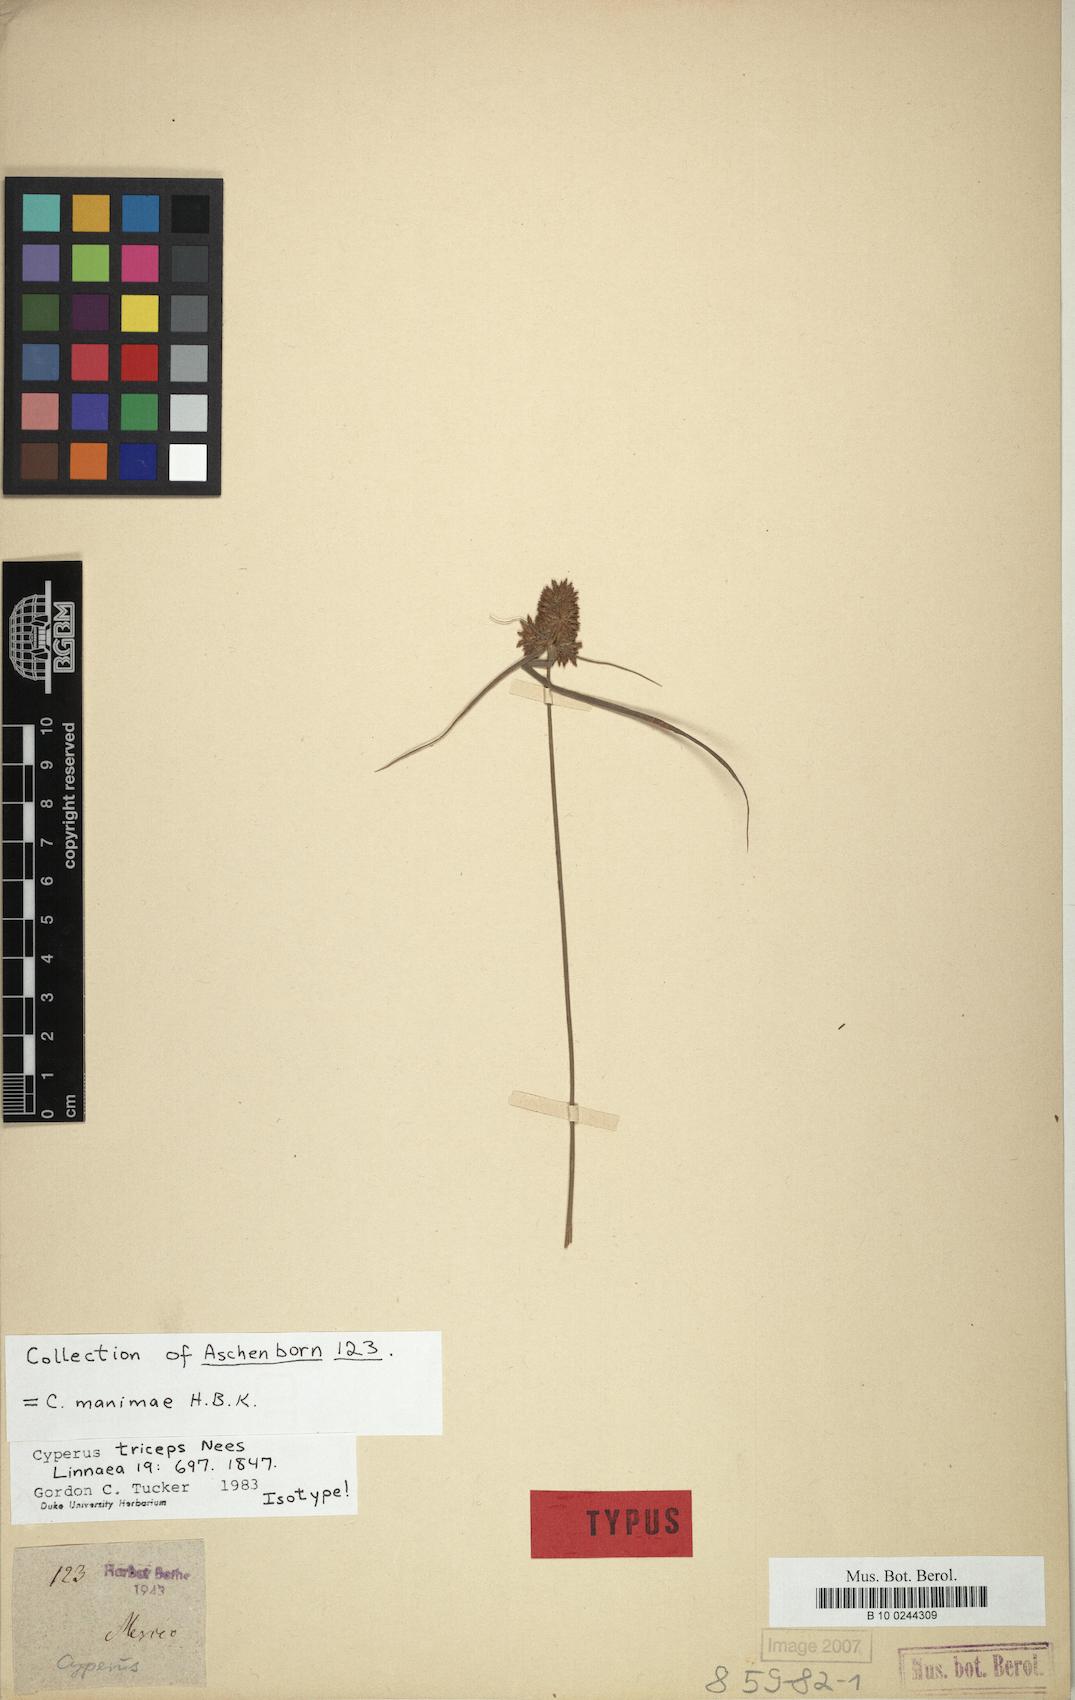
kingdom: Plantae
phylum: Tracheophyta
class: Liliopsida
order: Poales
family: Cyperaceae
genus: Cyperus
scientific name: Cyperus manimae
